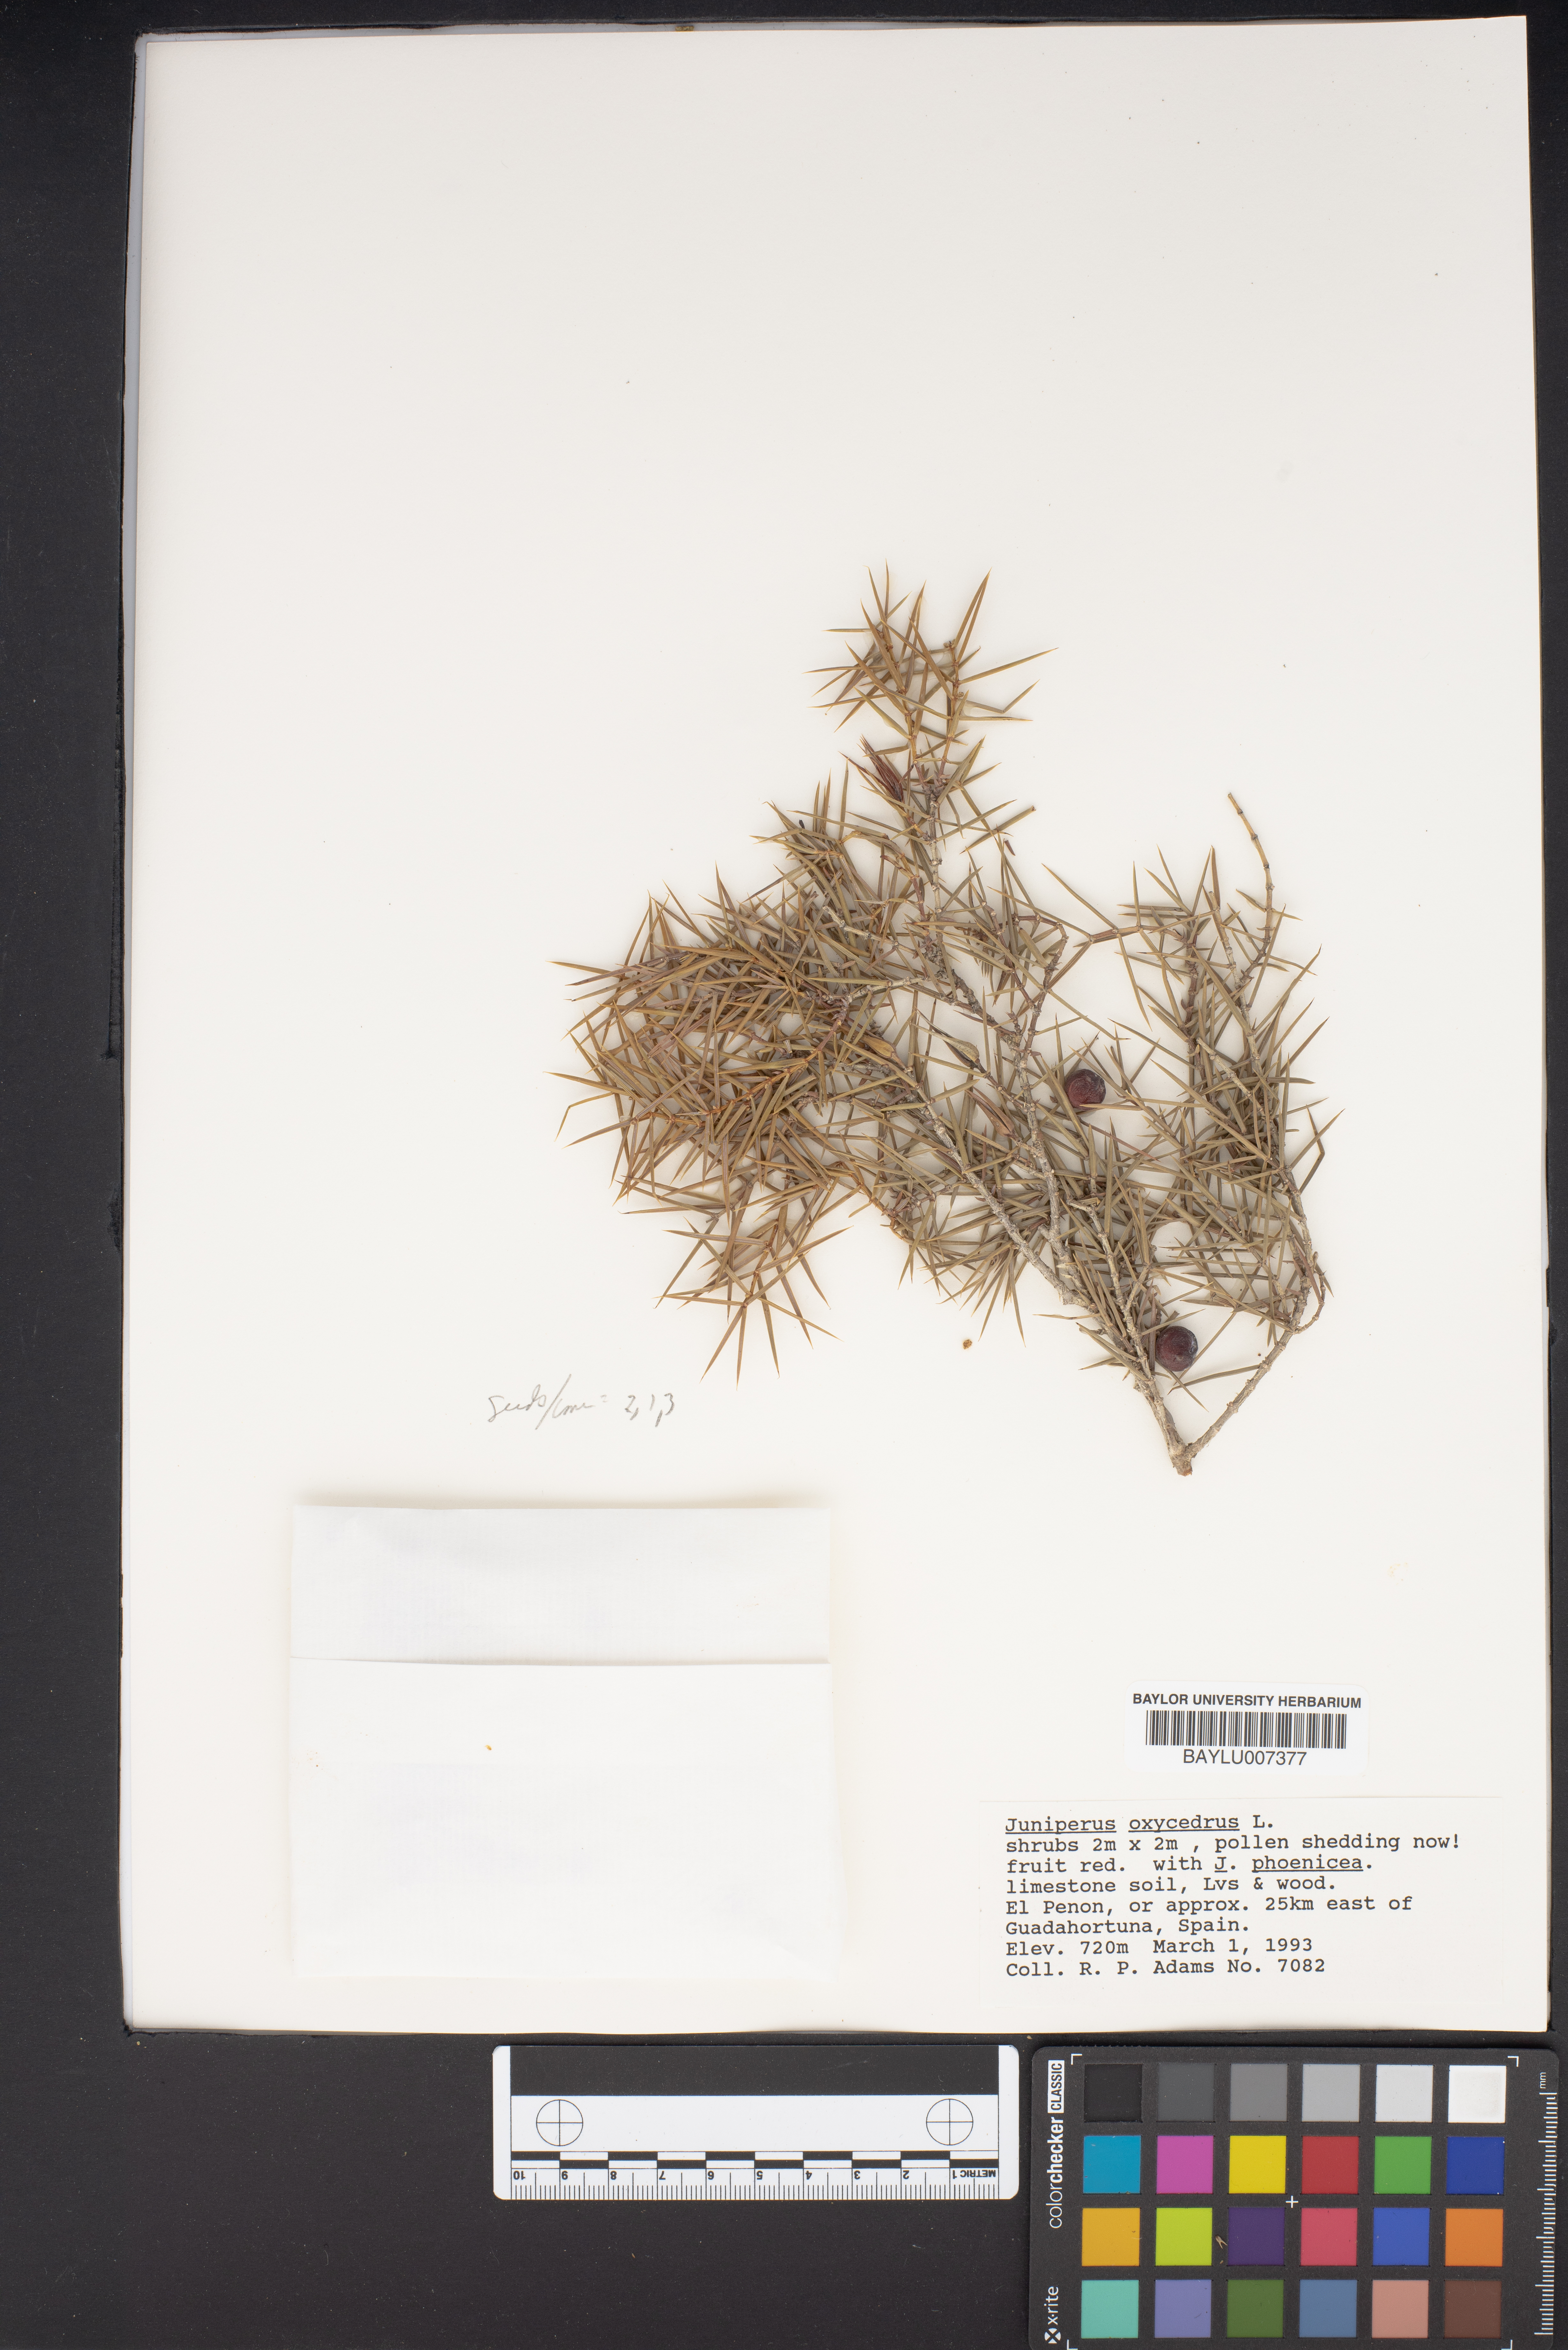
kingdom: Plantae
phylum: Tracheophyta
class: Pinopsida
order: Pinales
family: Cupressaceae
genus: Juniperus
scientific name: Juniperus oxycedrus
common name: Prickly juniper
